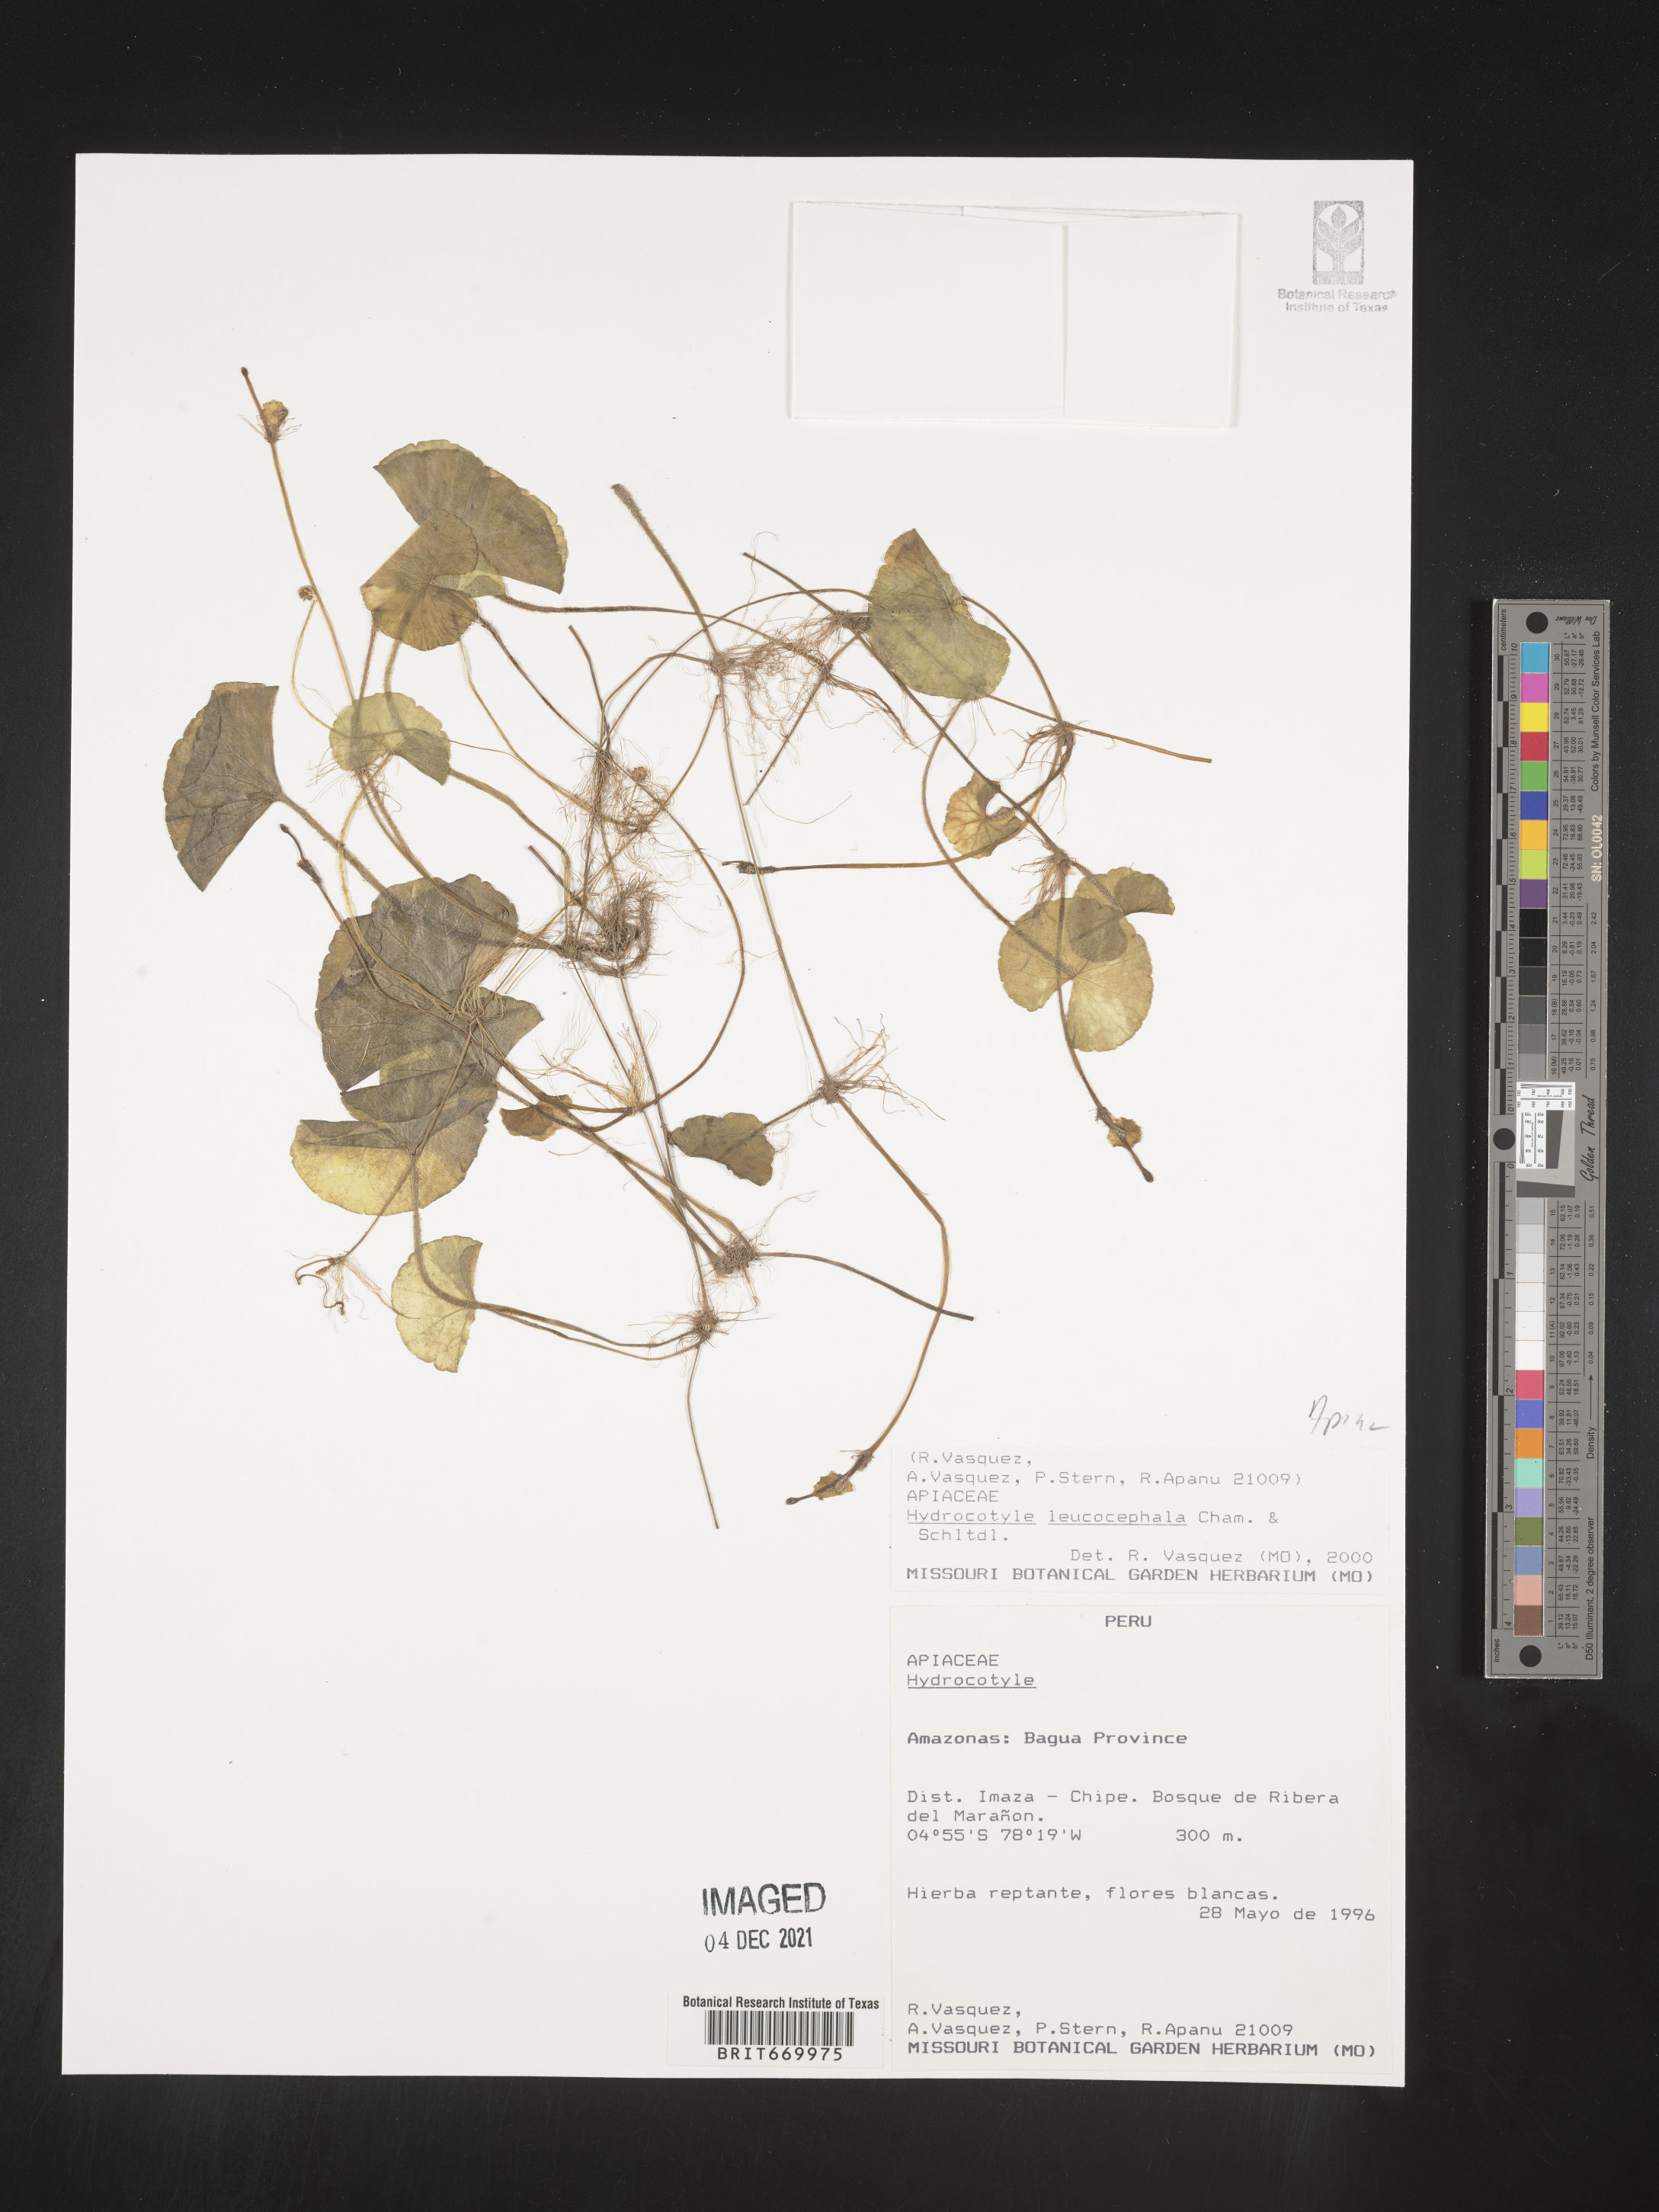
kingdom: Plantae
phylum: Tracheophyta
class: Magnoliopsida
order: Apiales
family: Araliaceae
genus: Hydrocotyle
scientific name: Hydrocotyle
